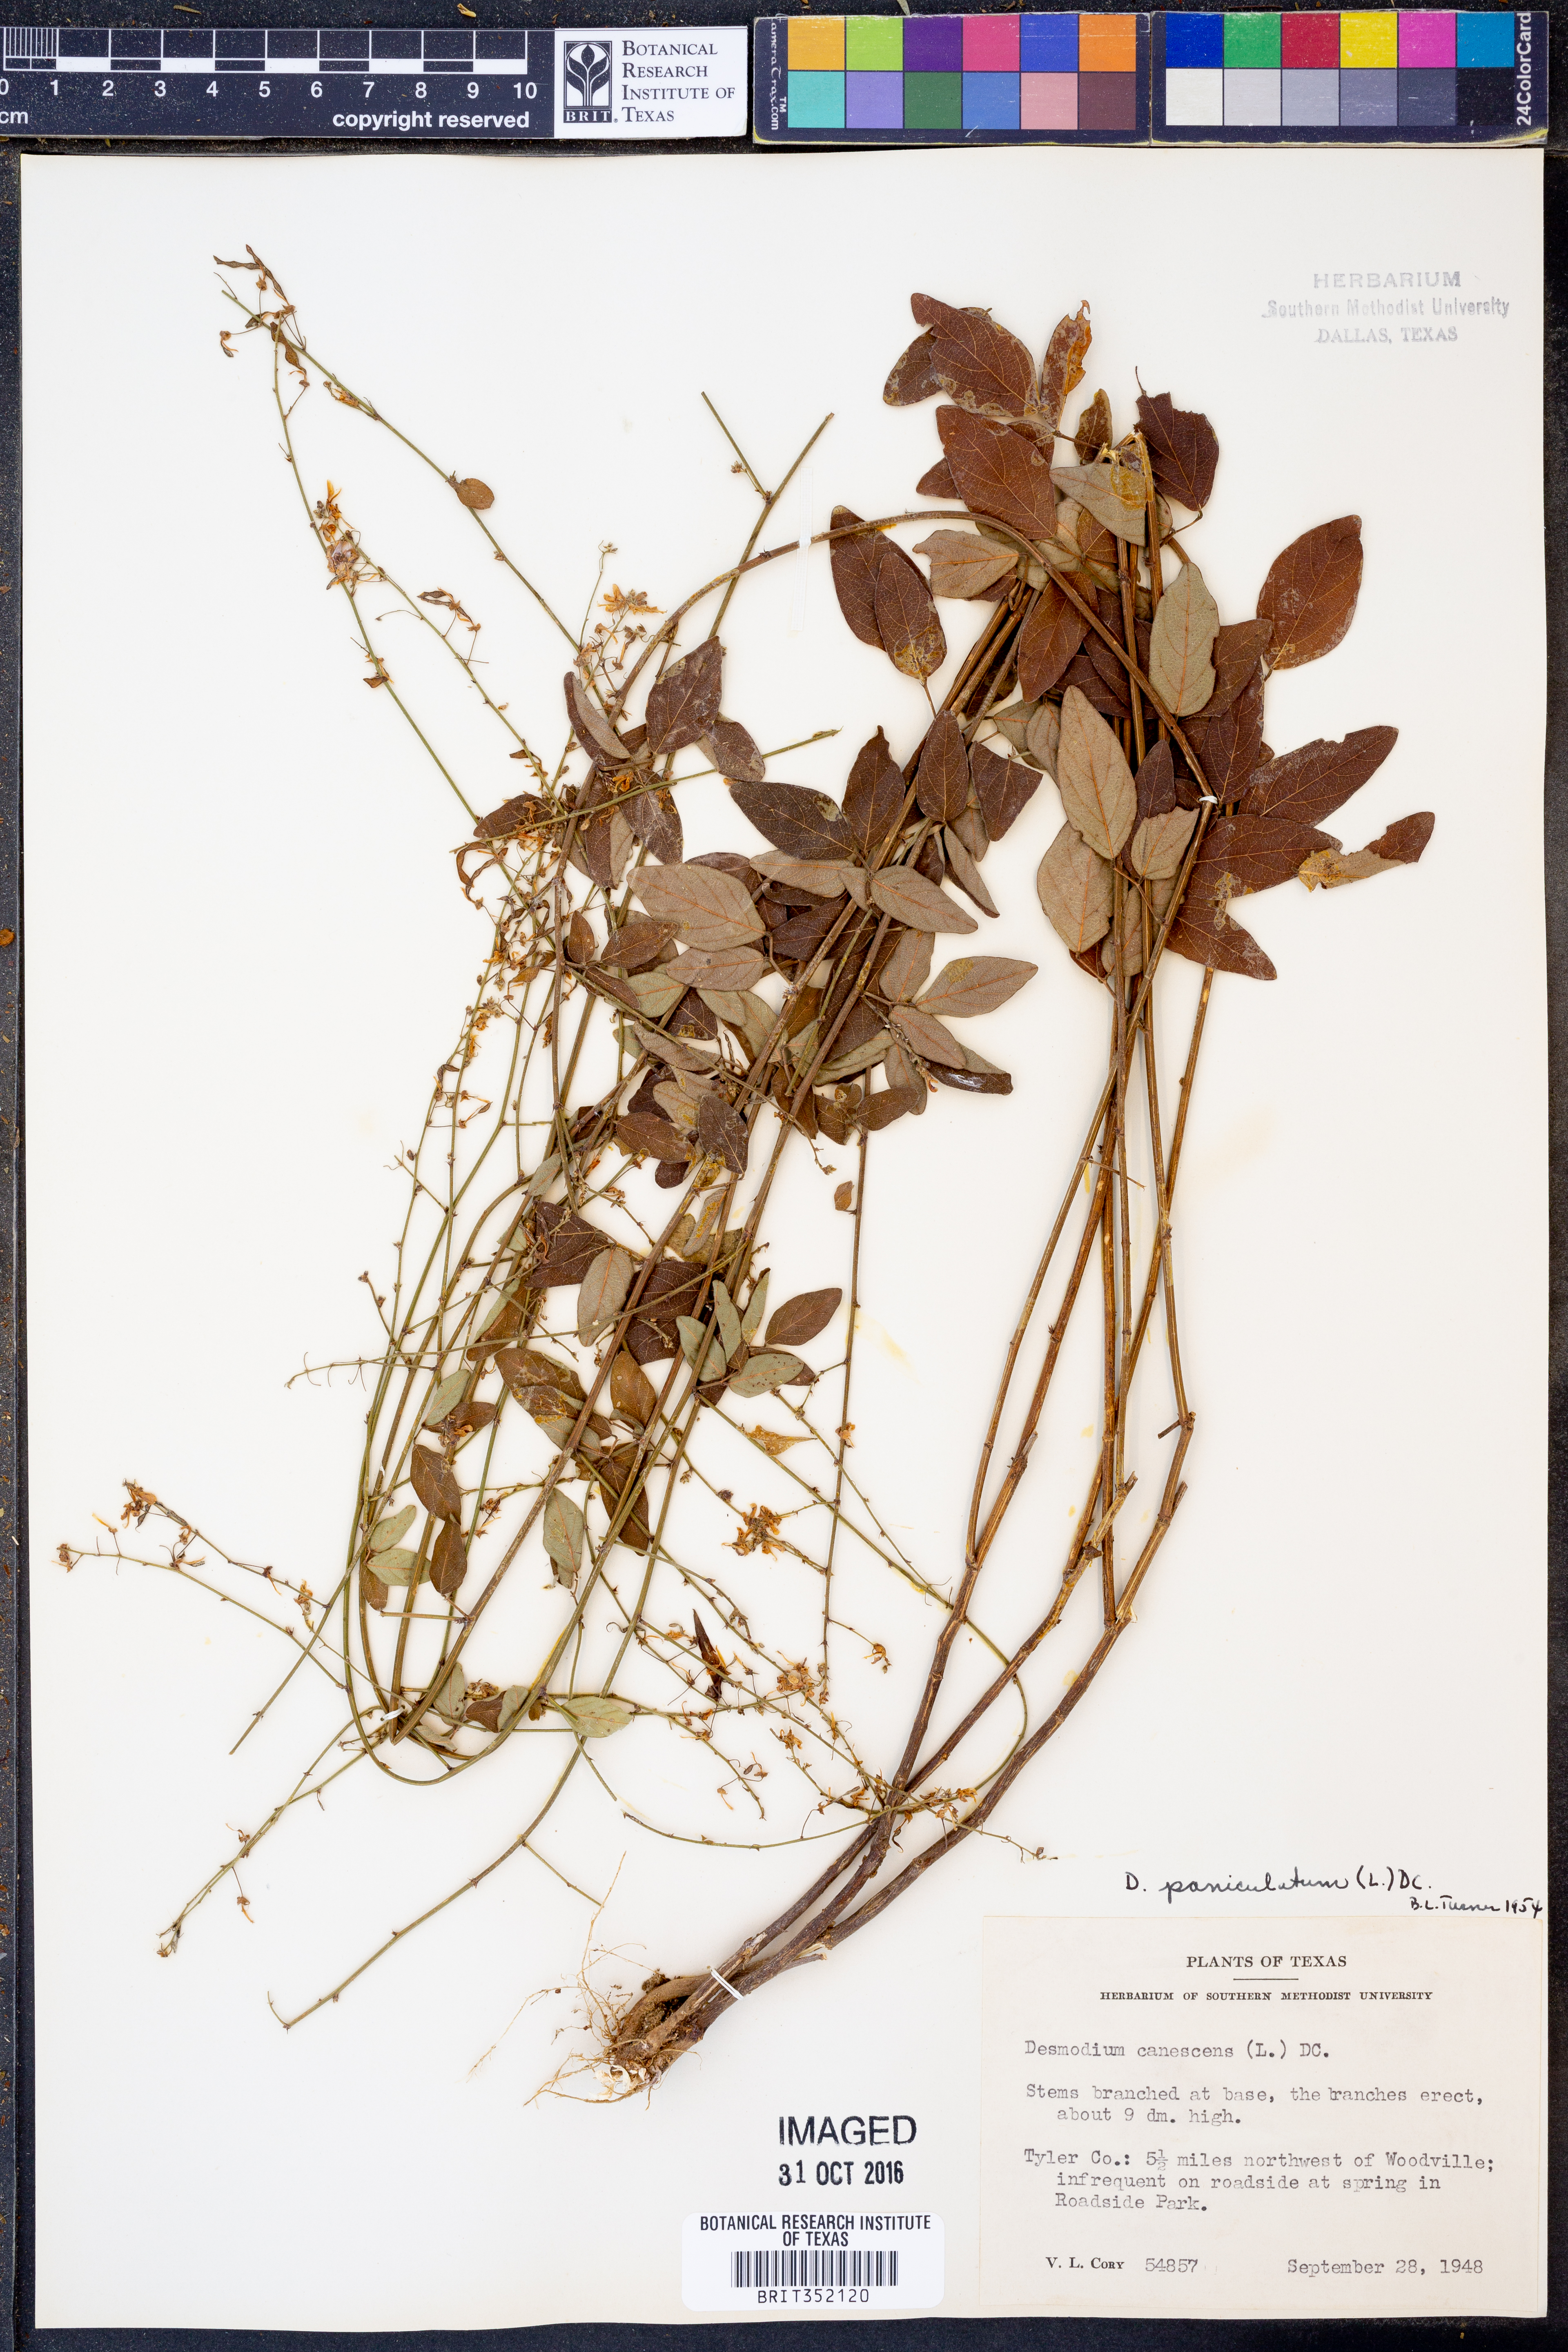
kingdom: Plantae
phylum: Tracheophyta
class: Magnoliopsida
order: Fabales
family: Fabaceae
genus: Desmodium
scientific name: Desmodium paniculatum
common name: Panicled tick-clover
